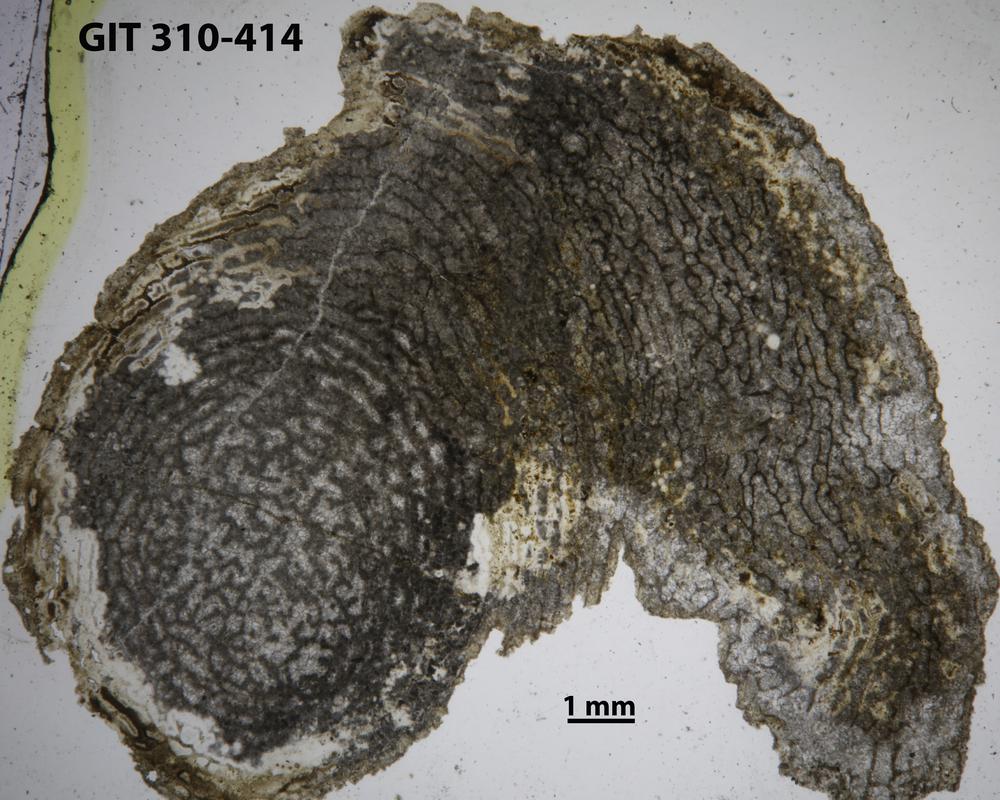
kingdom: Animalia
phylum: Porifera
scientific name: Porifera
